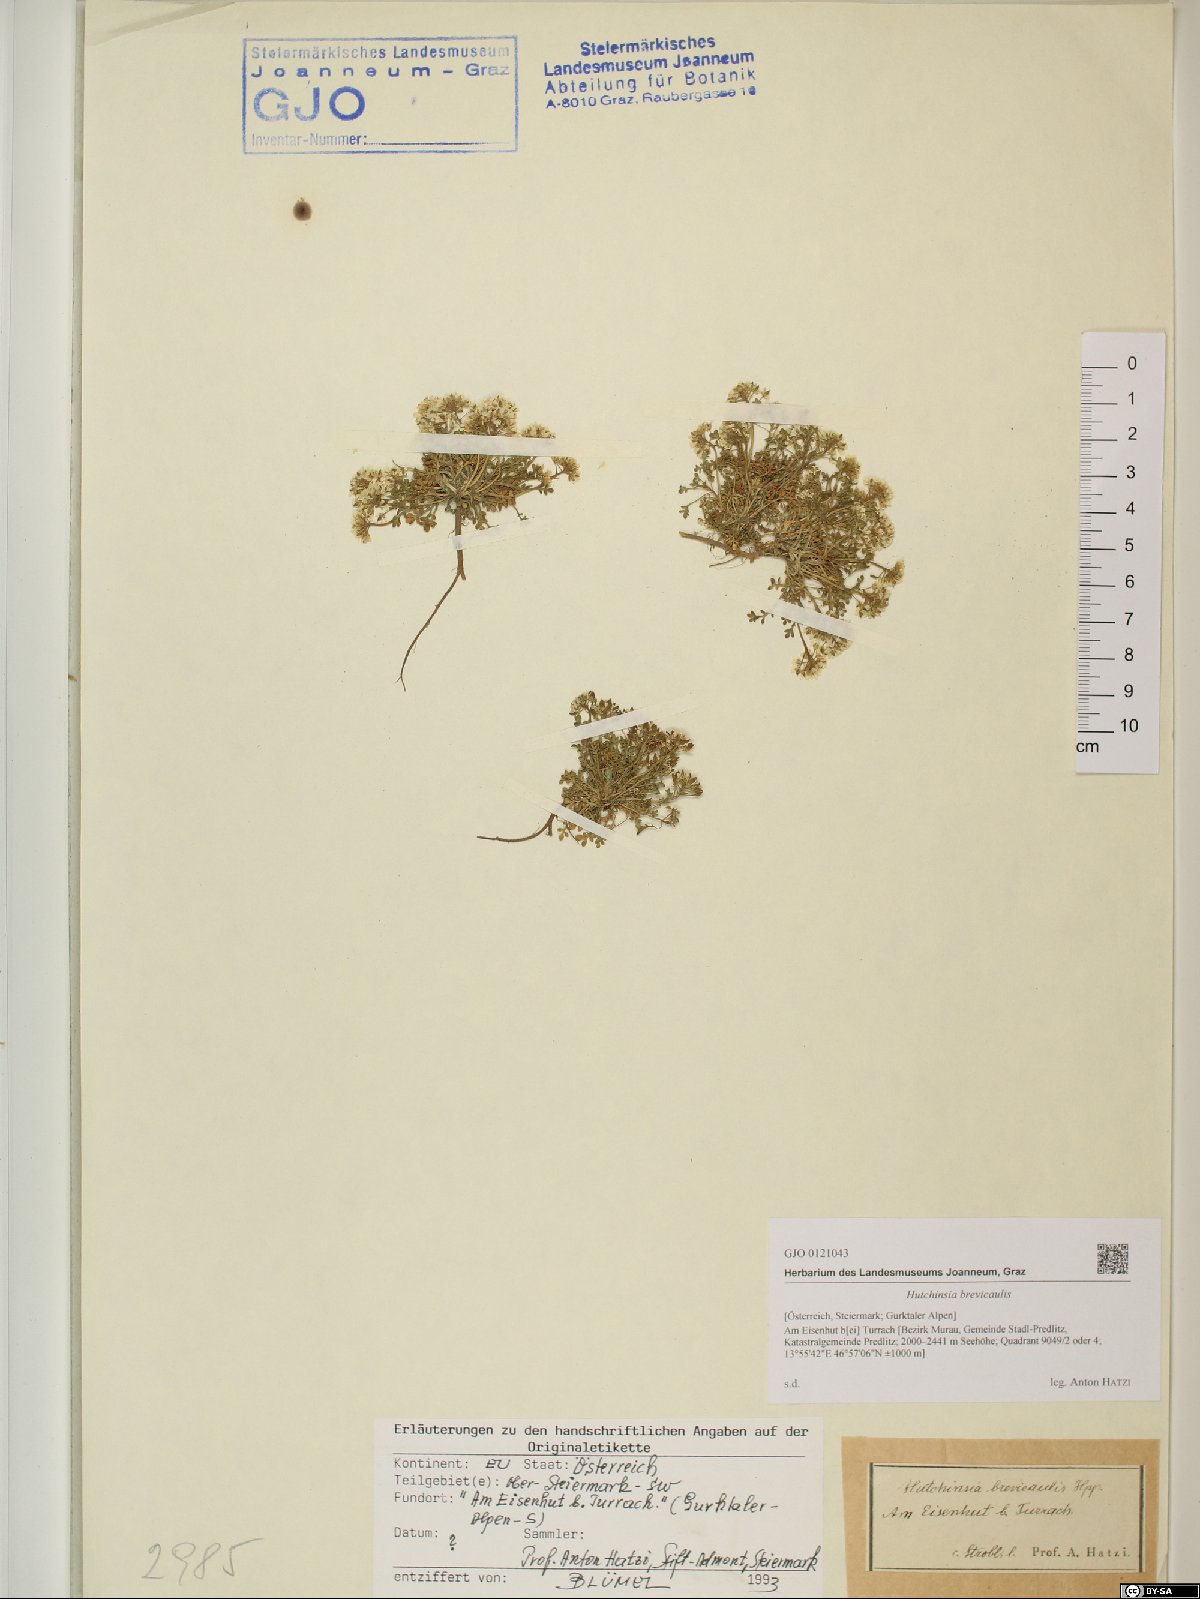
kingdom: Plantae
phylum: Tracheophyta
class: Magnoliopsida
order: Brassicales
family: Brassicaceae
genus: Hornungia
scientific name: Hornungia alpina
